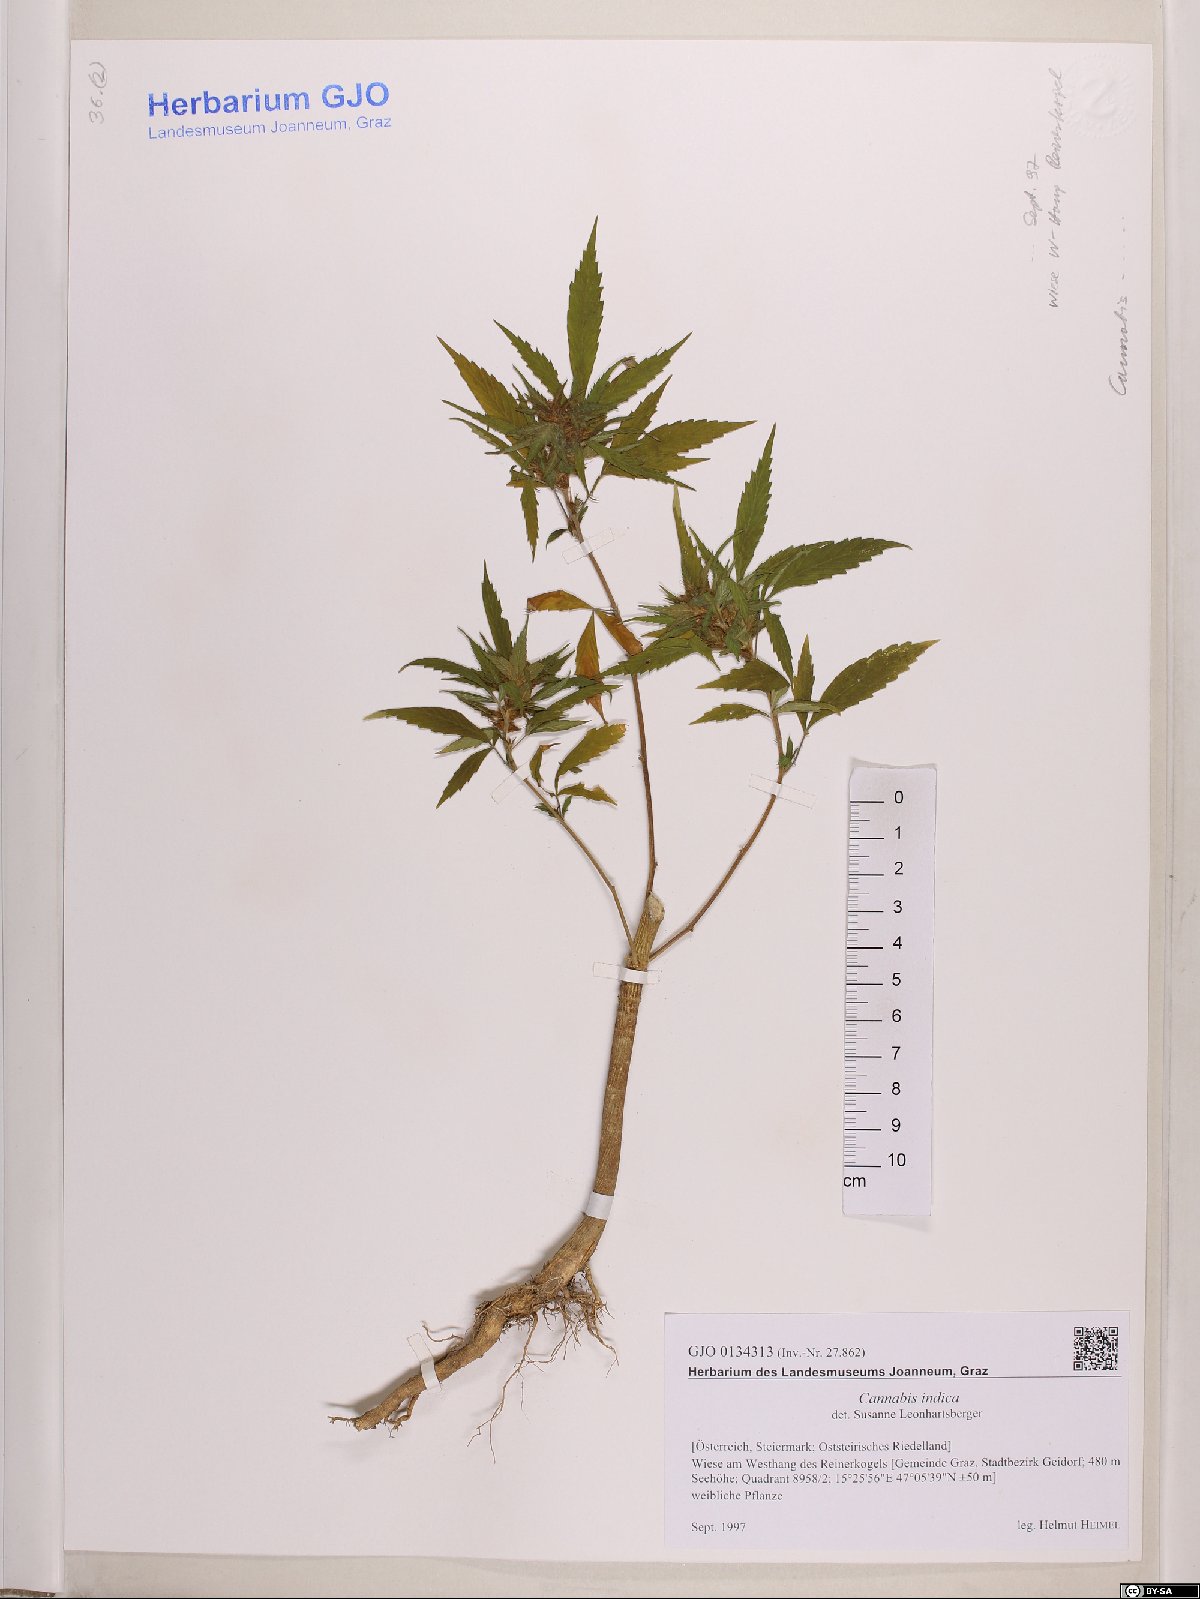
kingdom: Plantae
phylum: Tracheophyta
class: Magnoliopsida
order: Rosales
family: Cannabaceae
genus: Cannabis
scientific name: Cannabis sativa
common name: Hemp
